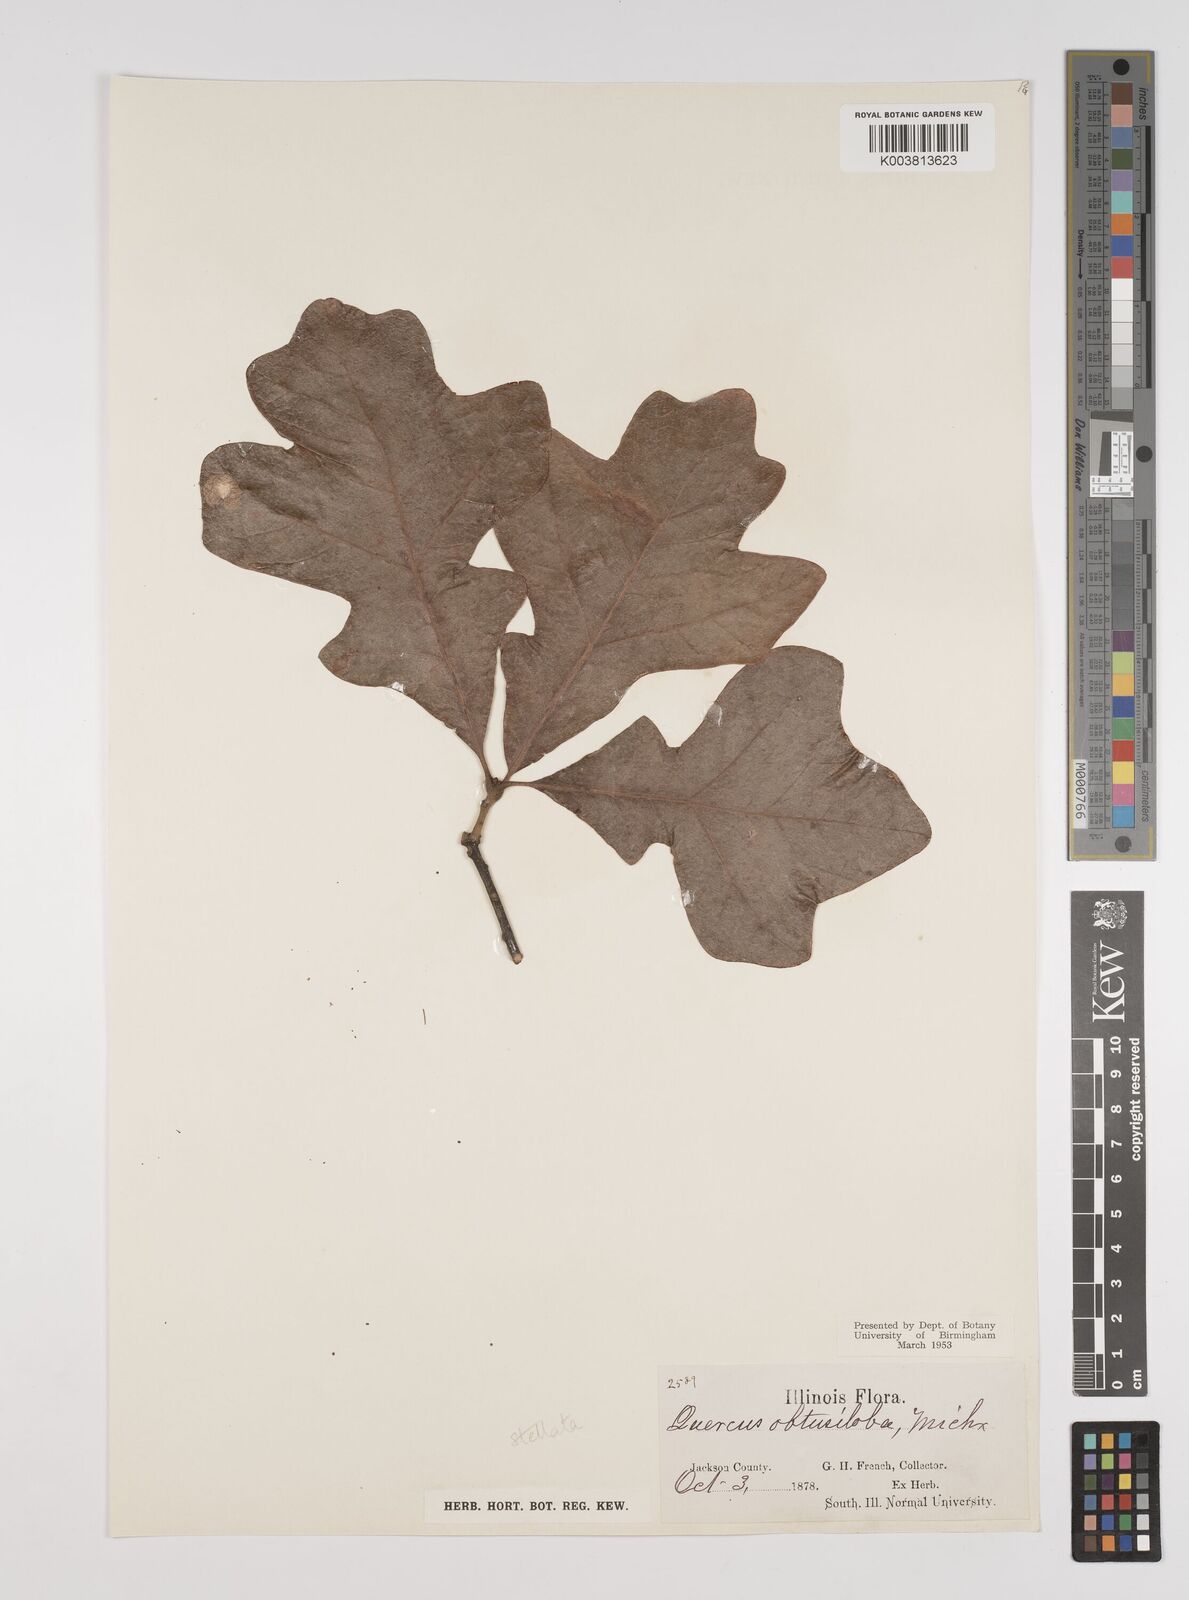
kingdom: Plantae
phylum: Tracheophyta
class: Magnoliopsida
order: Fagales
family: Fagaceae
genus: Quercus
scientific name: Quercus stellata
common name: Post oak
